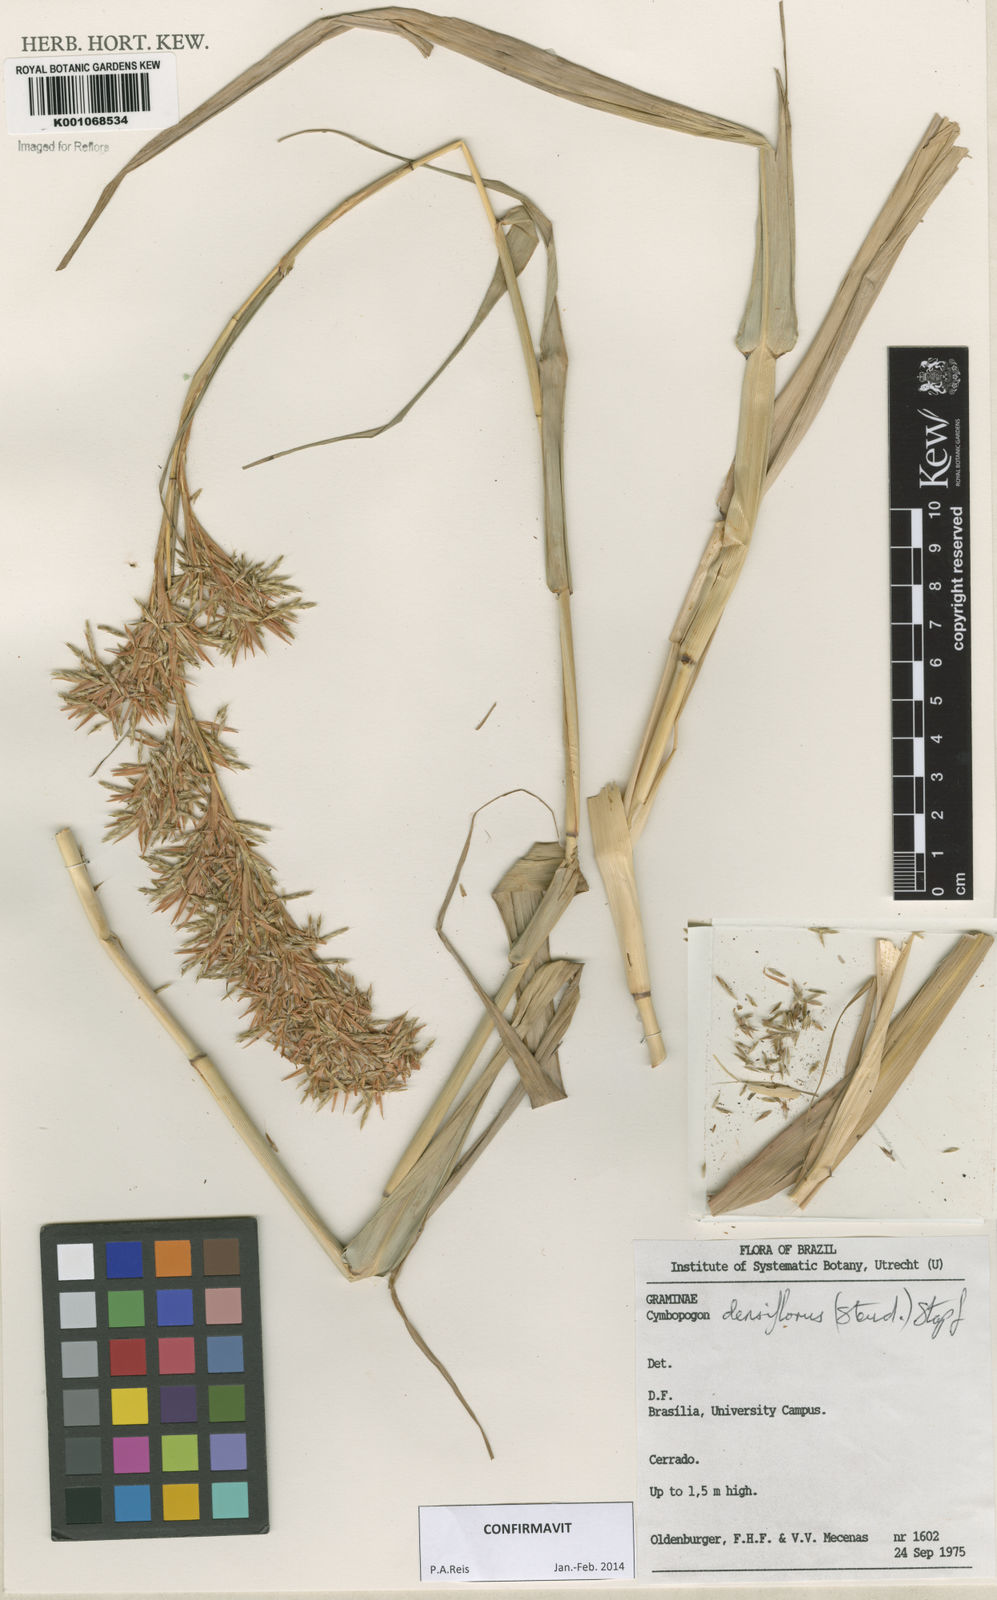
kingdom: Plantae
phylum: Tracheophyta
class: Liliopsida
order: Poales
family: Poaceae
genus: Cymbopogon
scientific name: Cymbopogon densiflorus
